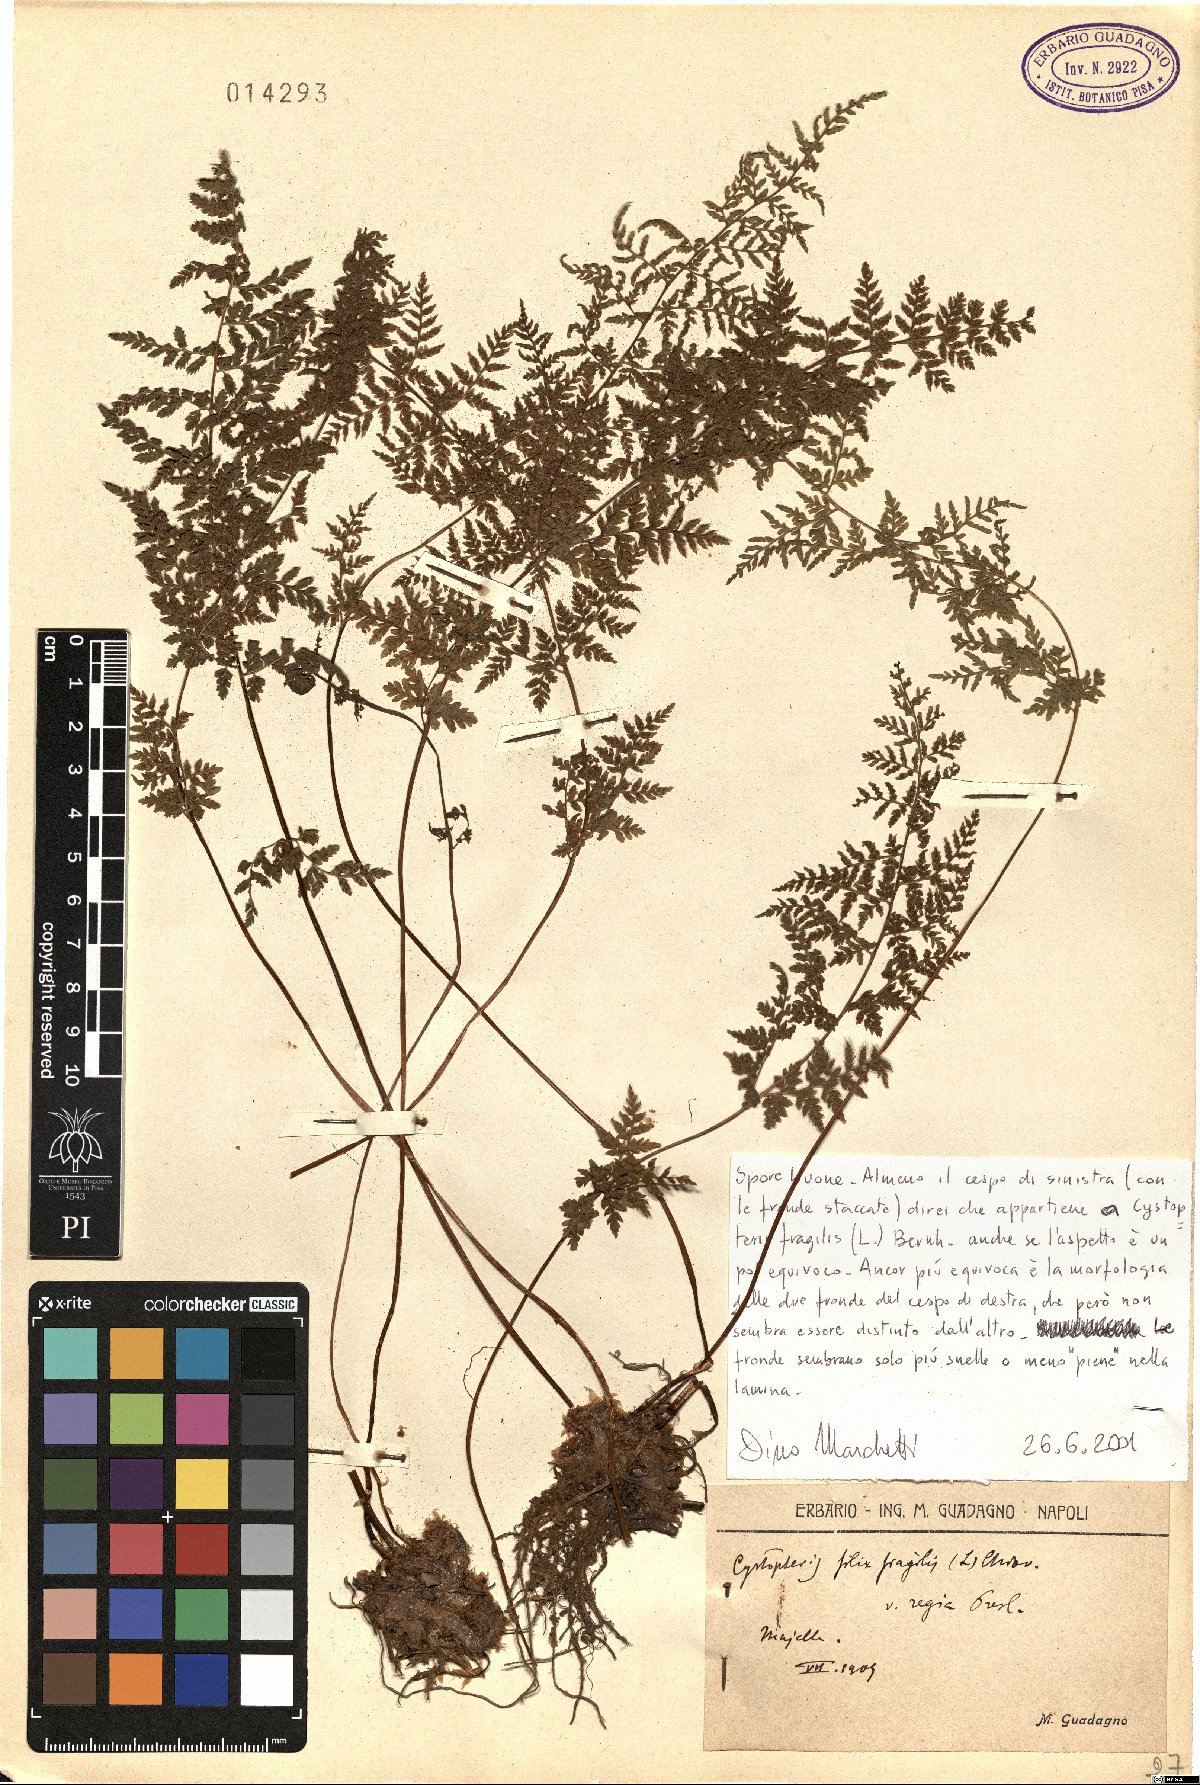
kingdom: Plantae
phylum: Tracheophyta
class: Polypodiopsida
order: Polypodiales
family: Cystopteridaceae
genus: Cystopteris
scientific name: Cystopteris fragilis
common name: Brittle bladder fern
